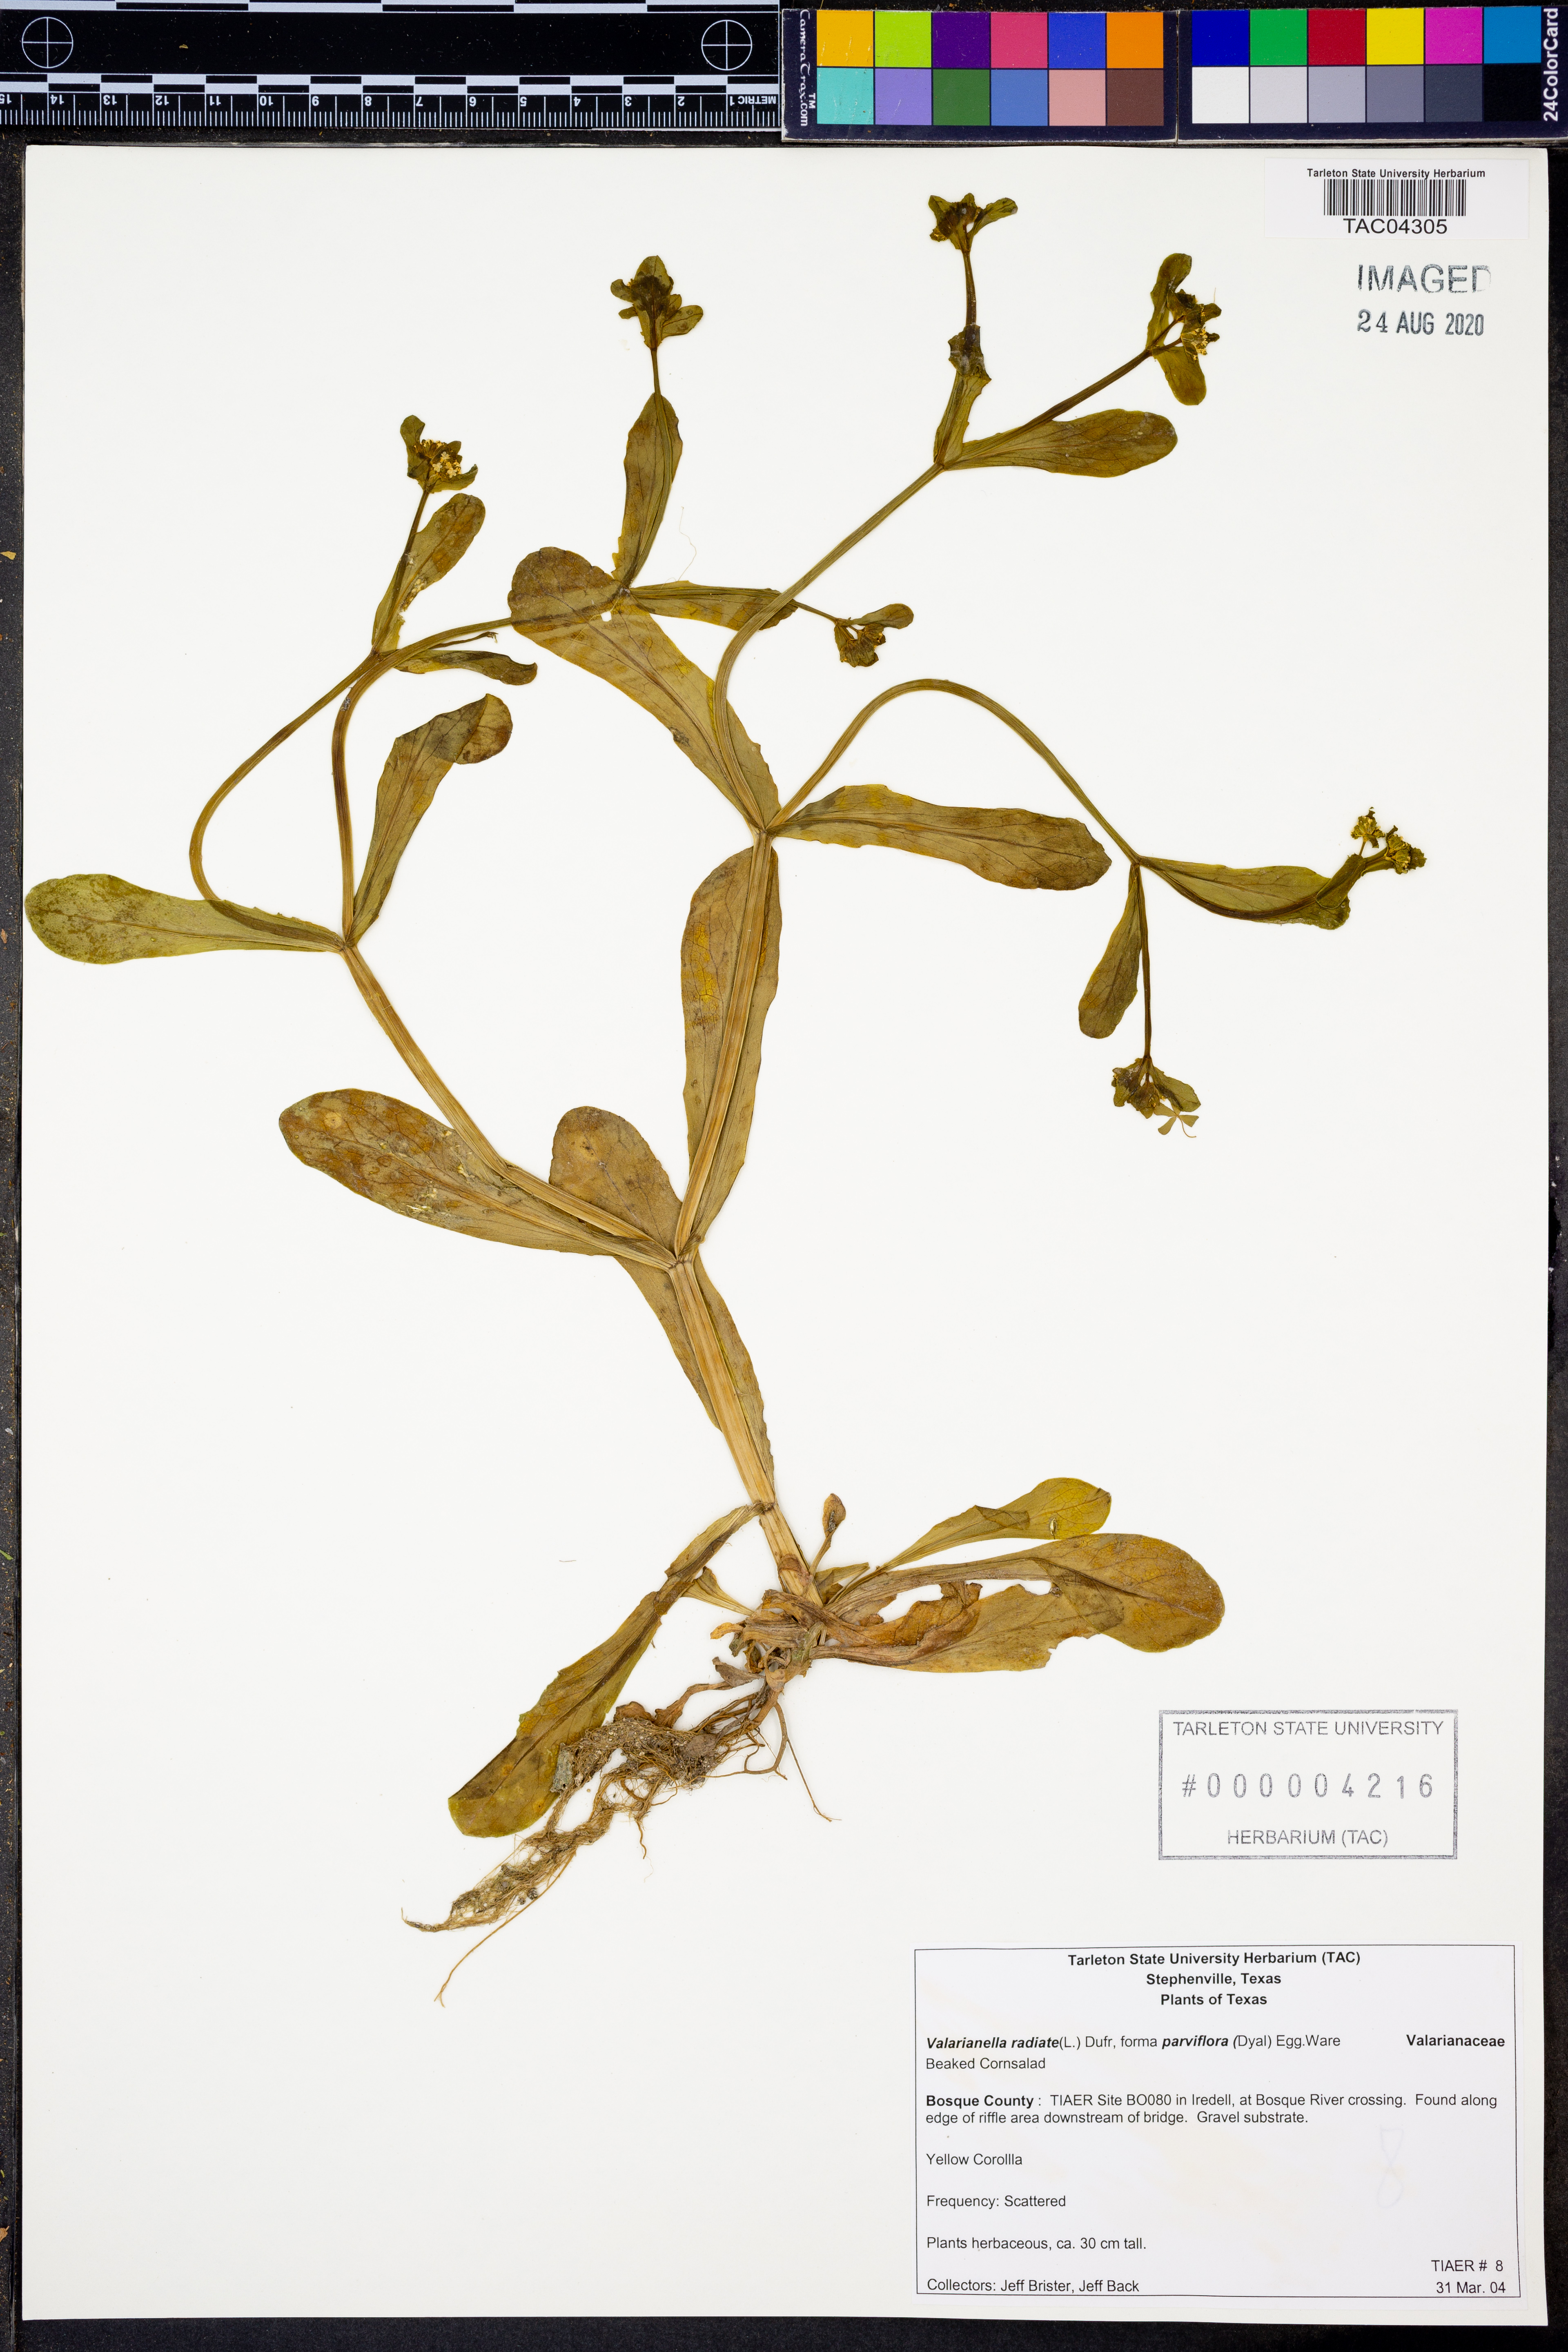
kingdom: Plantae
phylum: Tracheophyta
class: Magnoliopsida
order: Dipsacales
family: Caprifoliaceae
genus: Valerianella
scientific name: Valerianella radiata
